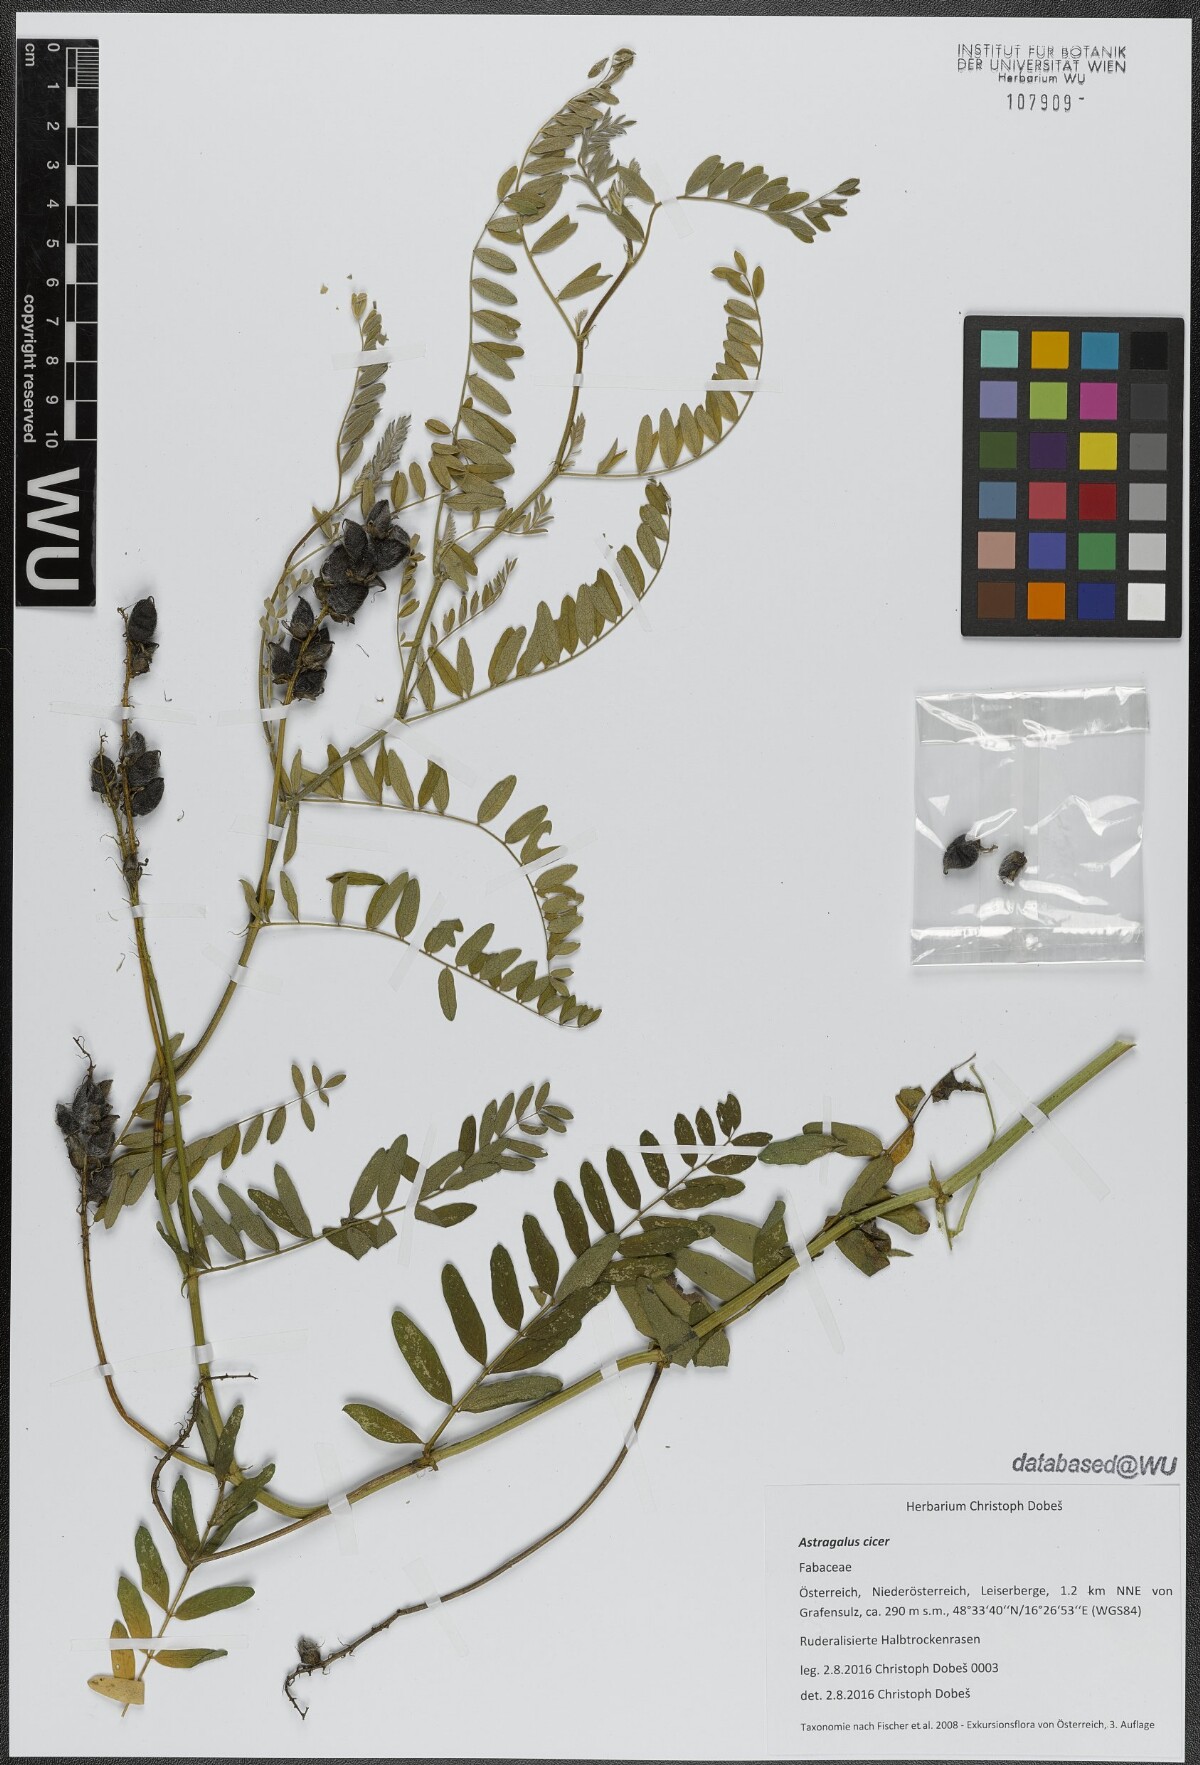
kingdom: Plantae
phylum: Tracheophyta
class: Magnoliopsida
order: Fabales
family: Fabaceae
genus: Astragalus
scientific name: Astragalus cicer
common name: Chick-pea milk-vetch
